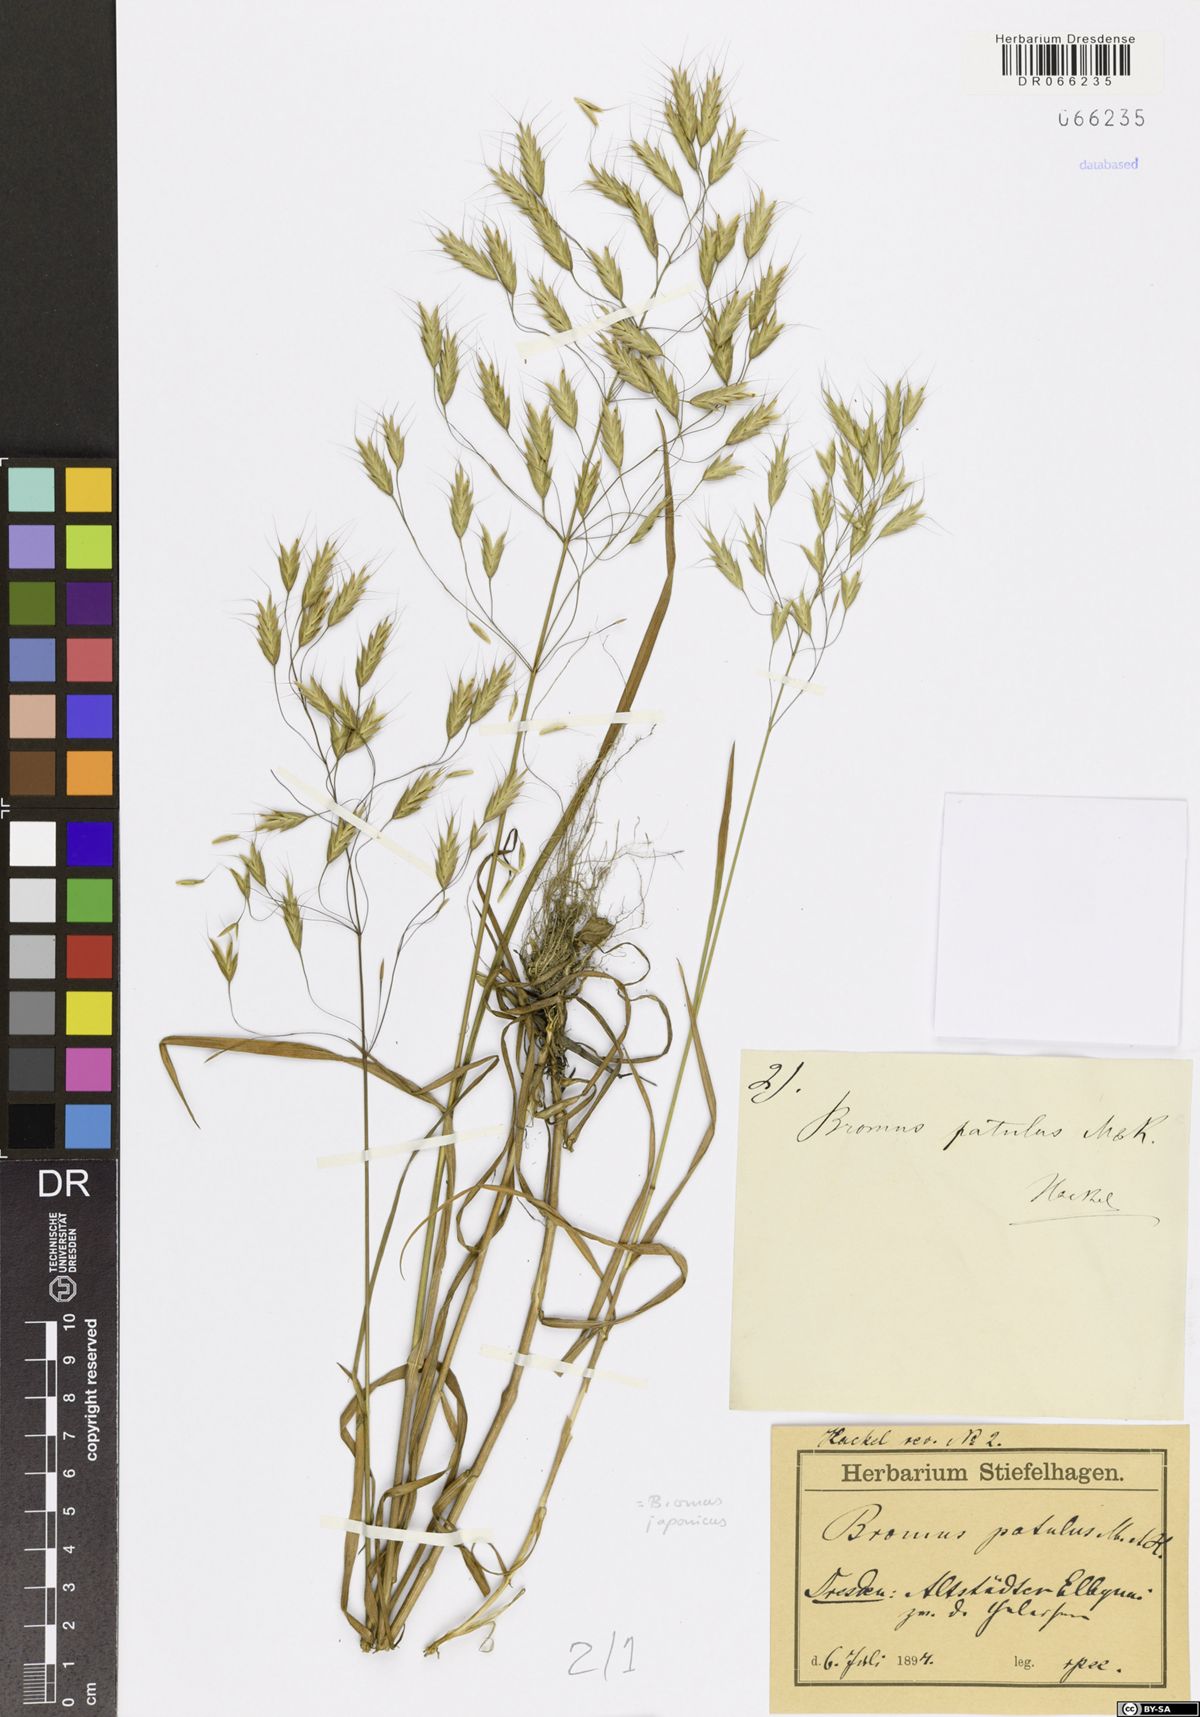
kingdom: Plantae
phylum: Tracheophyta
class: Liliopsida
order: Poales
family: Poaceae
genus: Bromus
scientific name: Bromus japonicus
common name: Japanese brome
